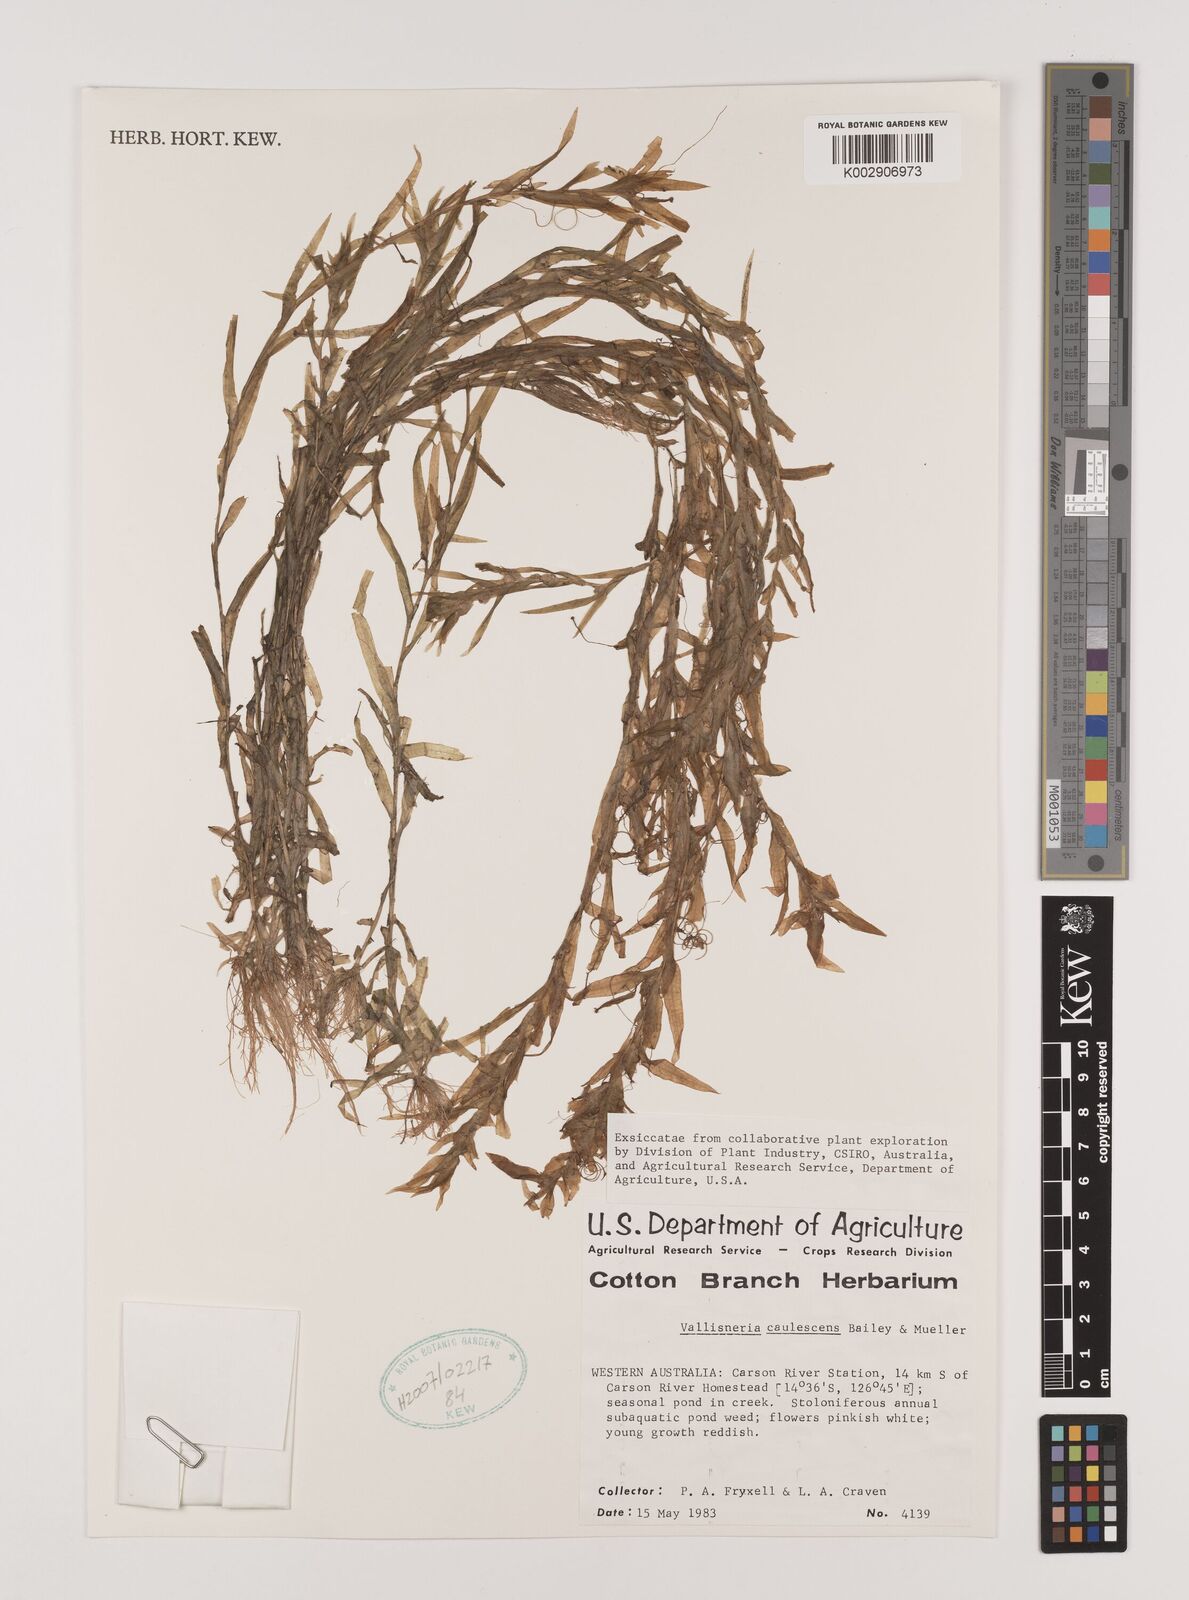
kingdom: Plantae
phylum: Tracheophyta
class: Liliopsida
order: Alismatales
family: Hydrocharitaceae
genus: Vallisneria
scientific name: Vallisneria caulescens
